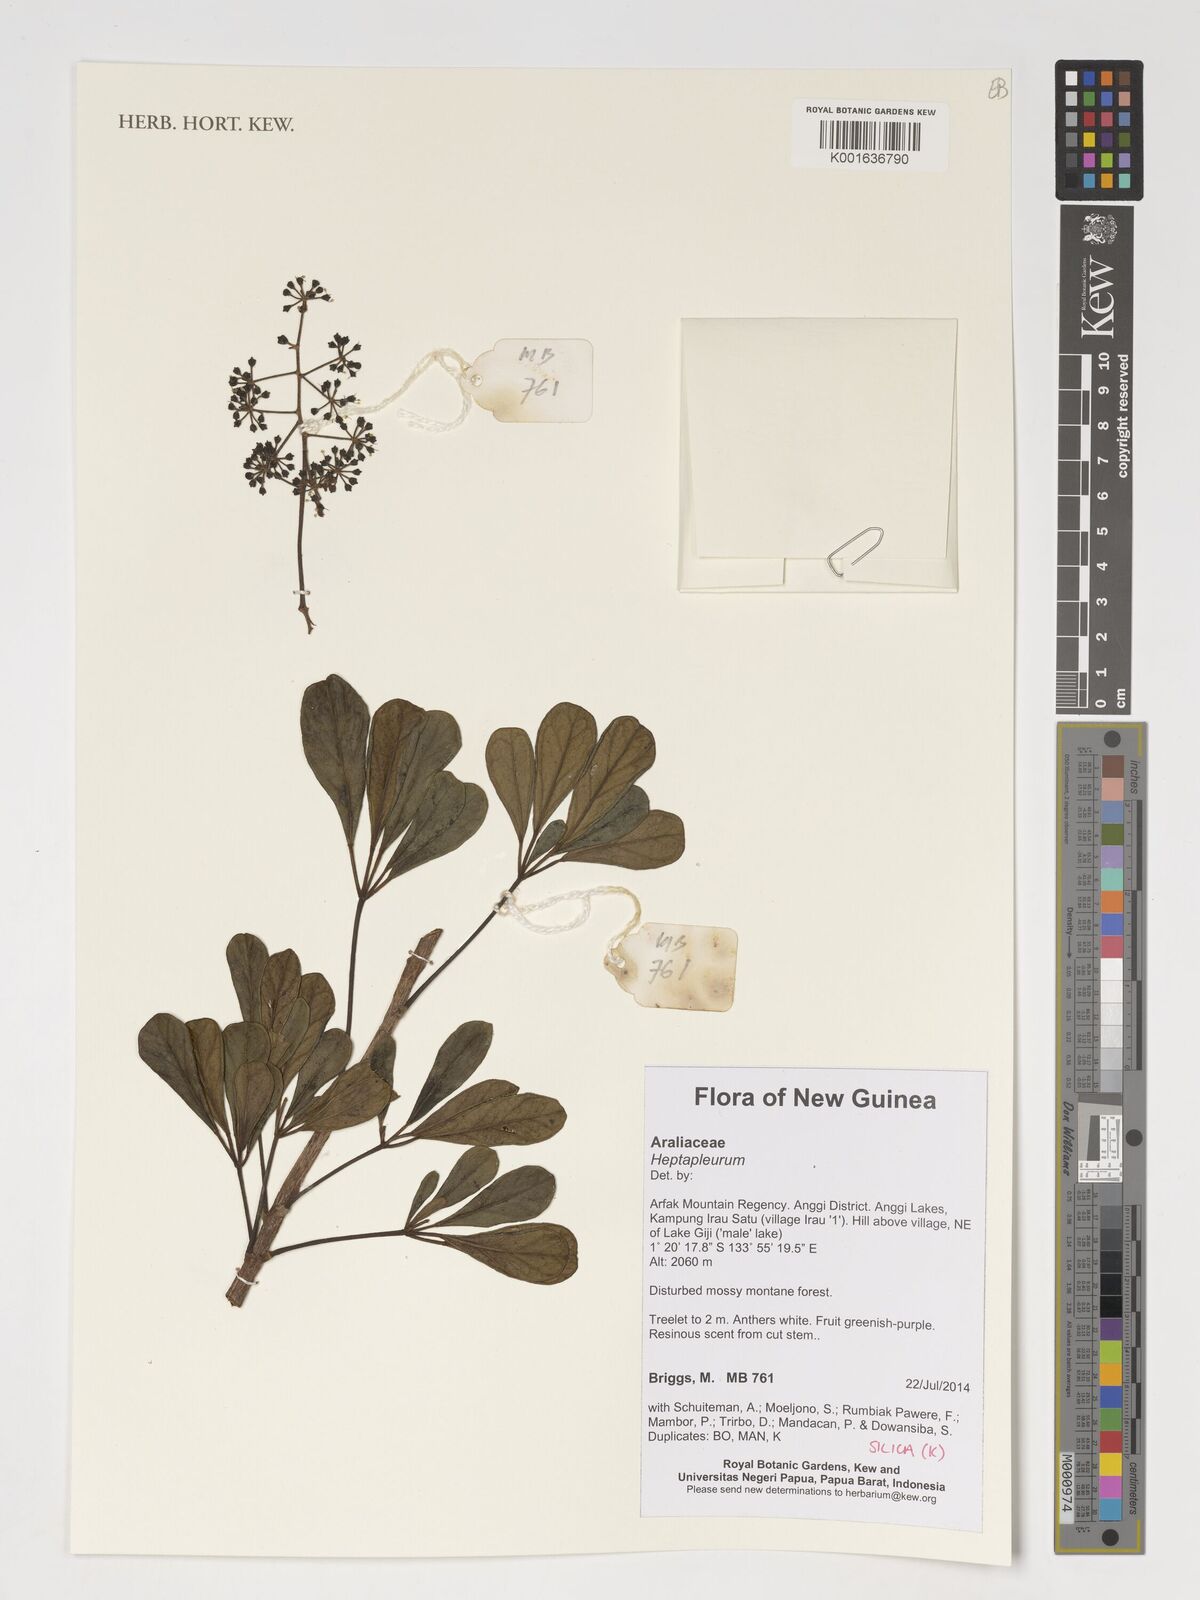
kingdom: Plantae
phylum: Tracheophyta
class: Magnoliopsida
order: Apiales
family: Araliaceae
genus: Heptapleurum
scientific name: Heptapleurum
